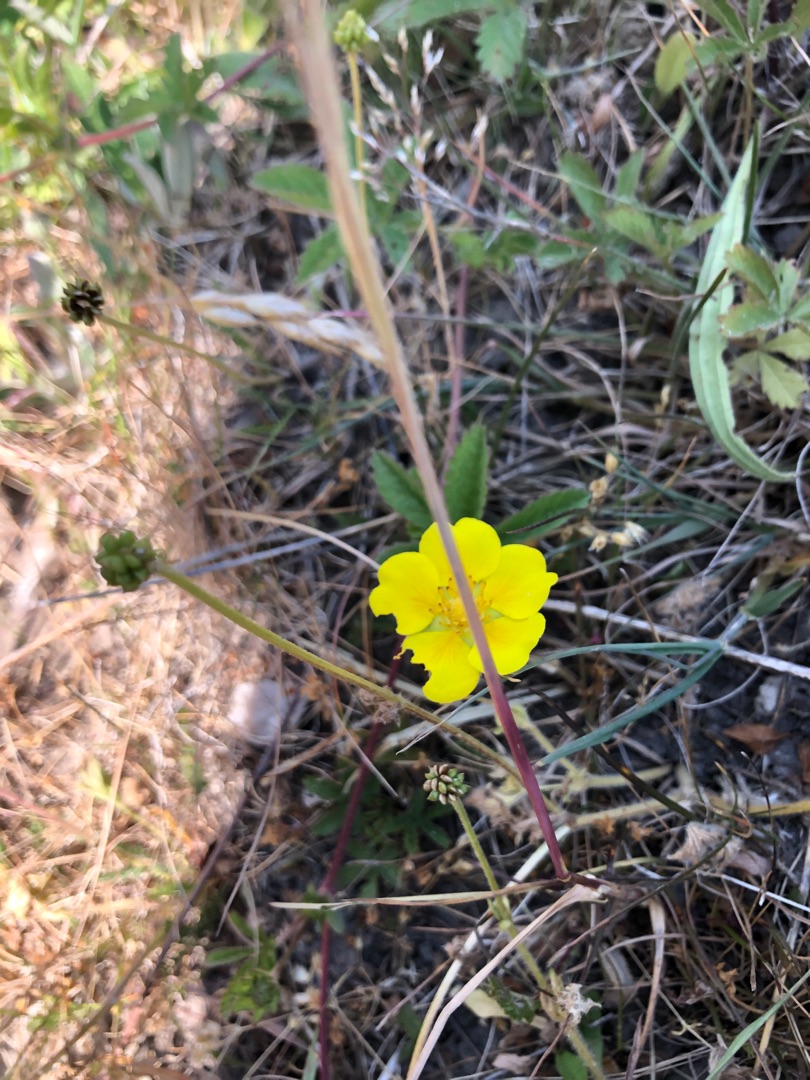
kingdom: Plantae
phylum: Tracheophyta
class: Magnoliopsida
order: Rosales
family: Rosaceae
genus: Potentilla
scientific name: Potentilla reptans
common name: Krybende potentil
